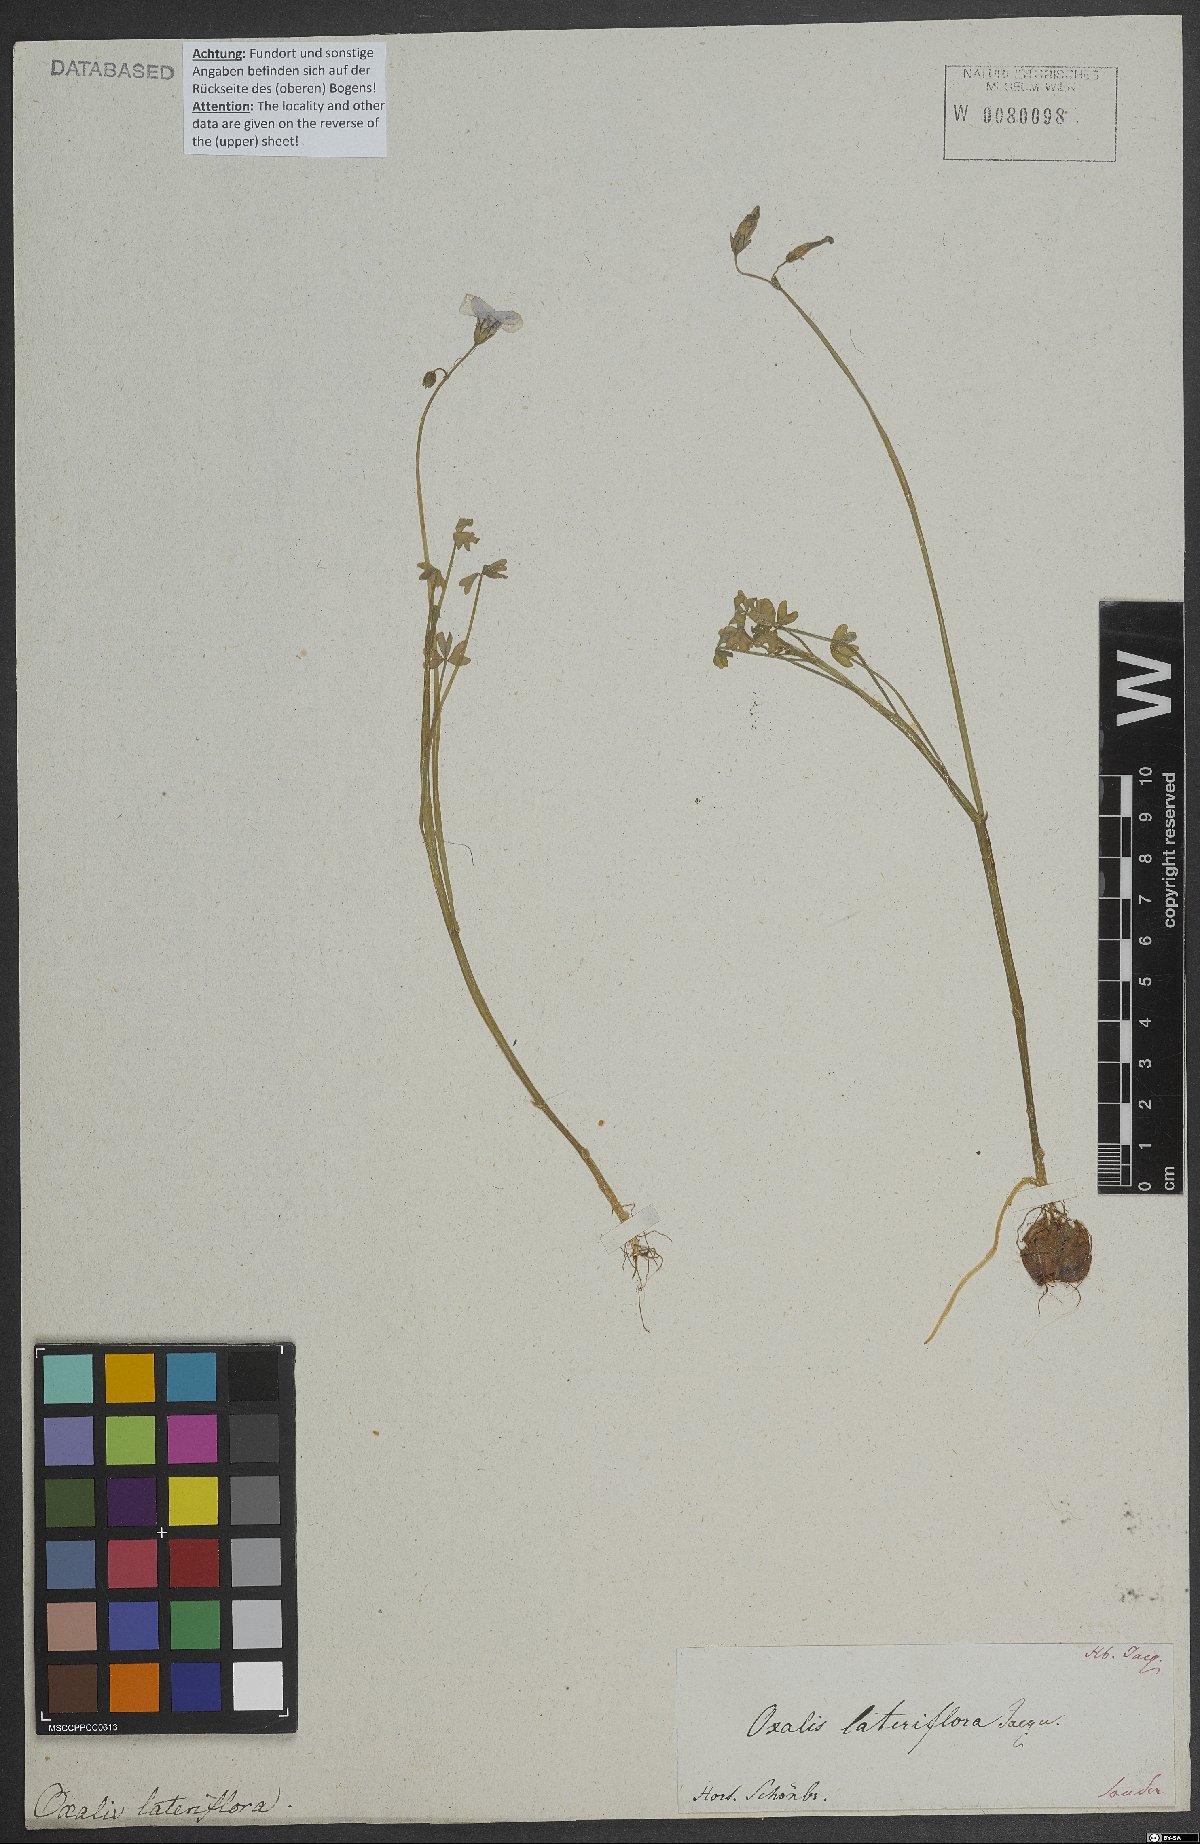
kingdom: Plantae
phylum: Tracheophyta
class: Magnoliopsida
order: Oxalidales
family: Oxalidaceae
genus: Oxalis
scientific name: Oxalis livida
